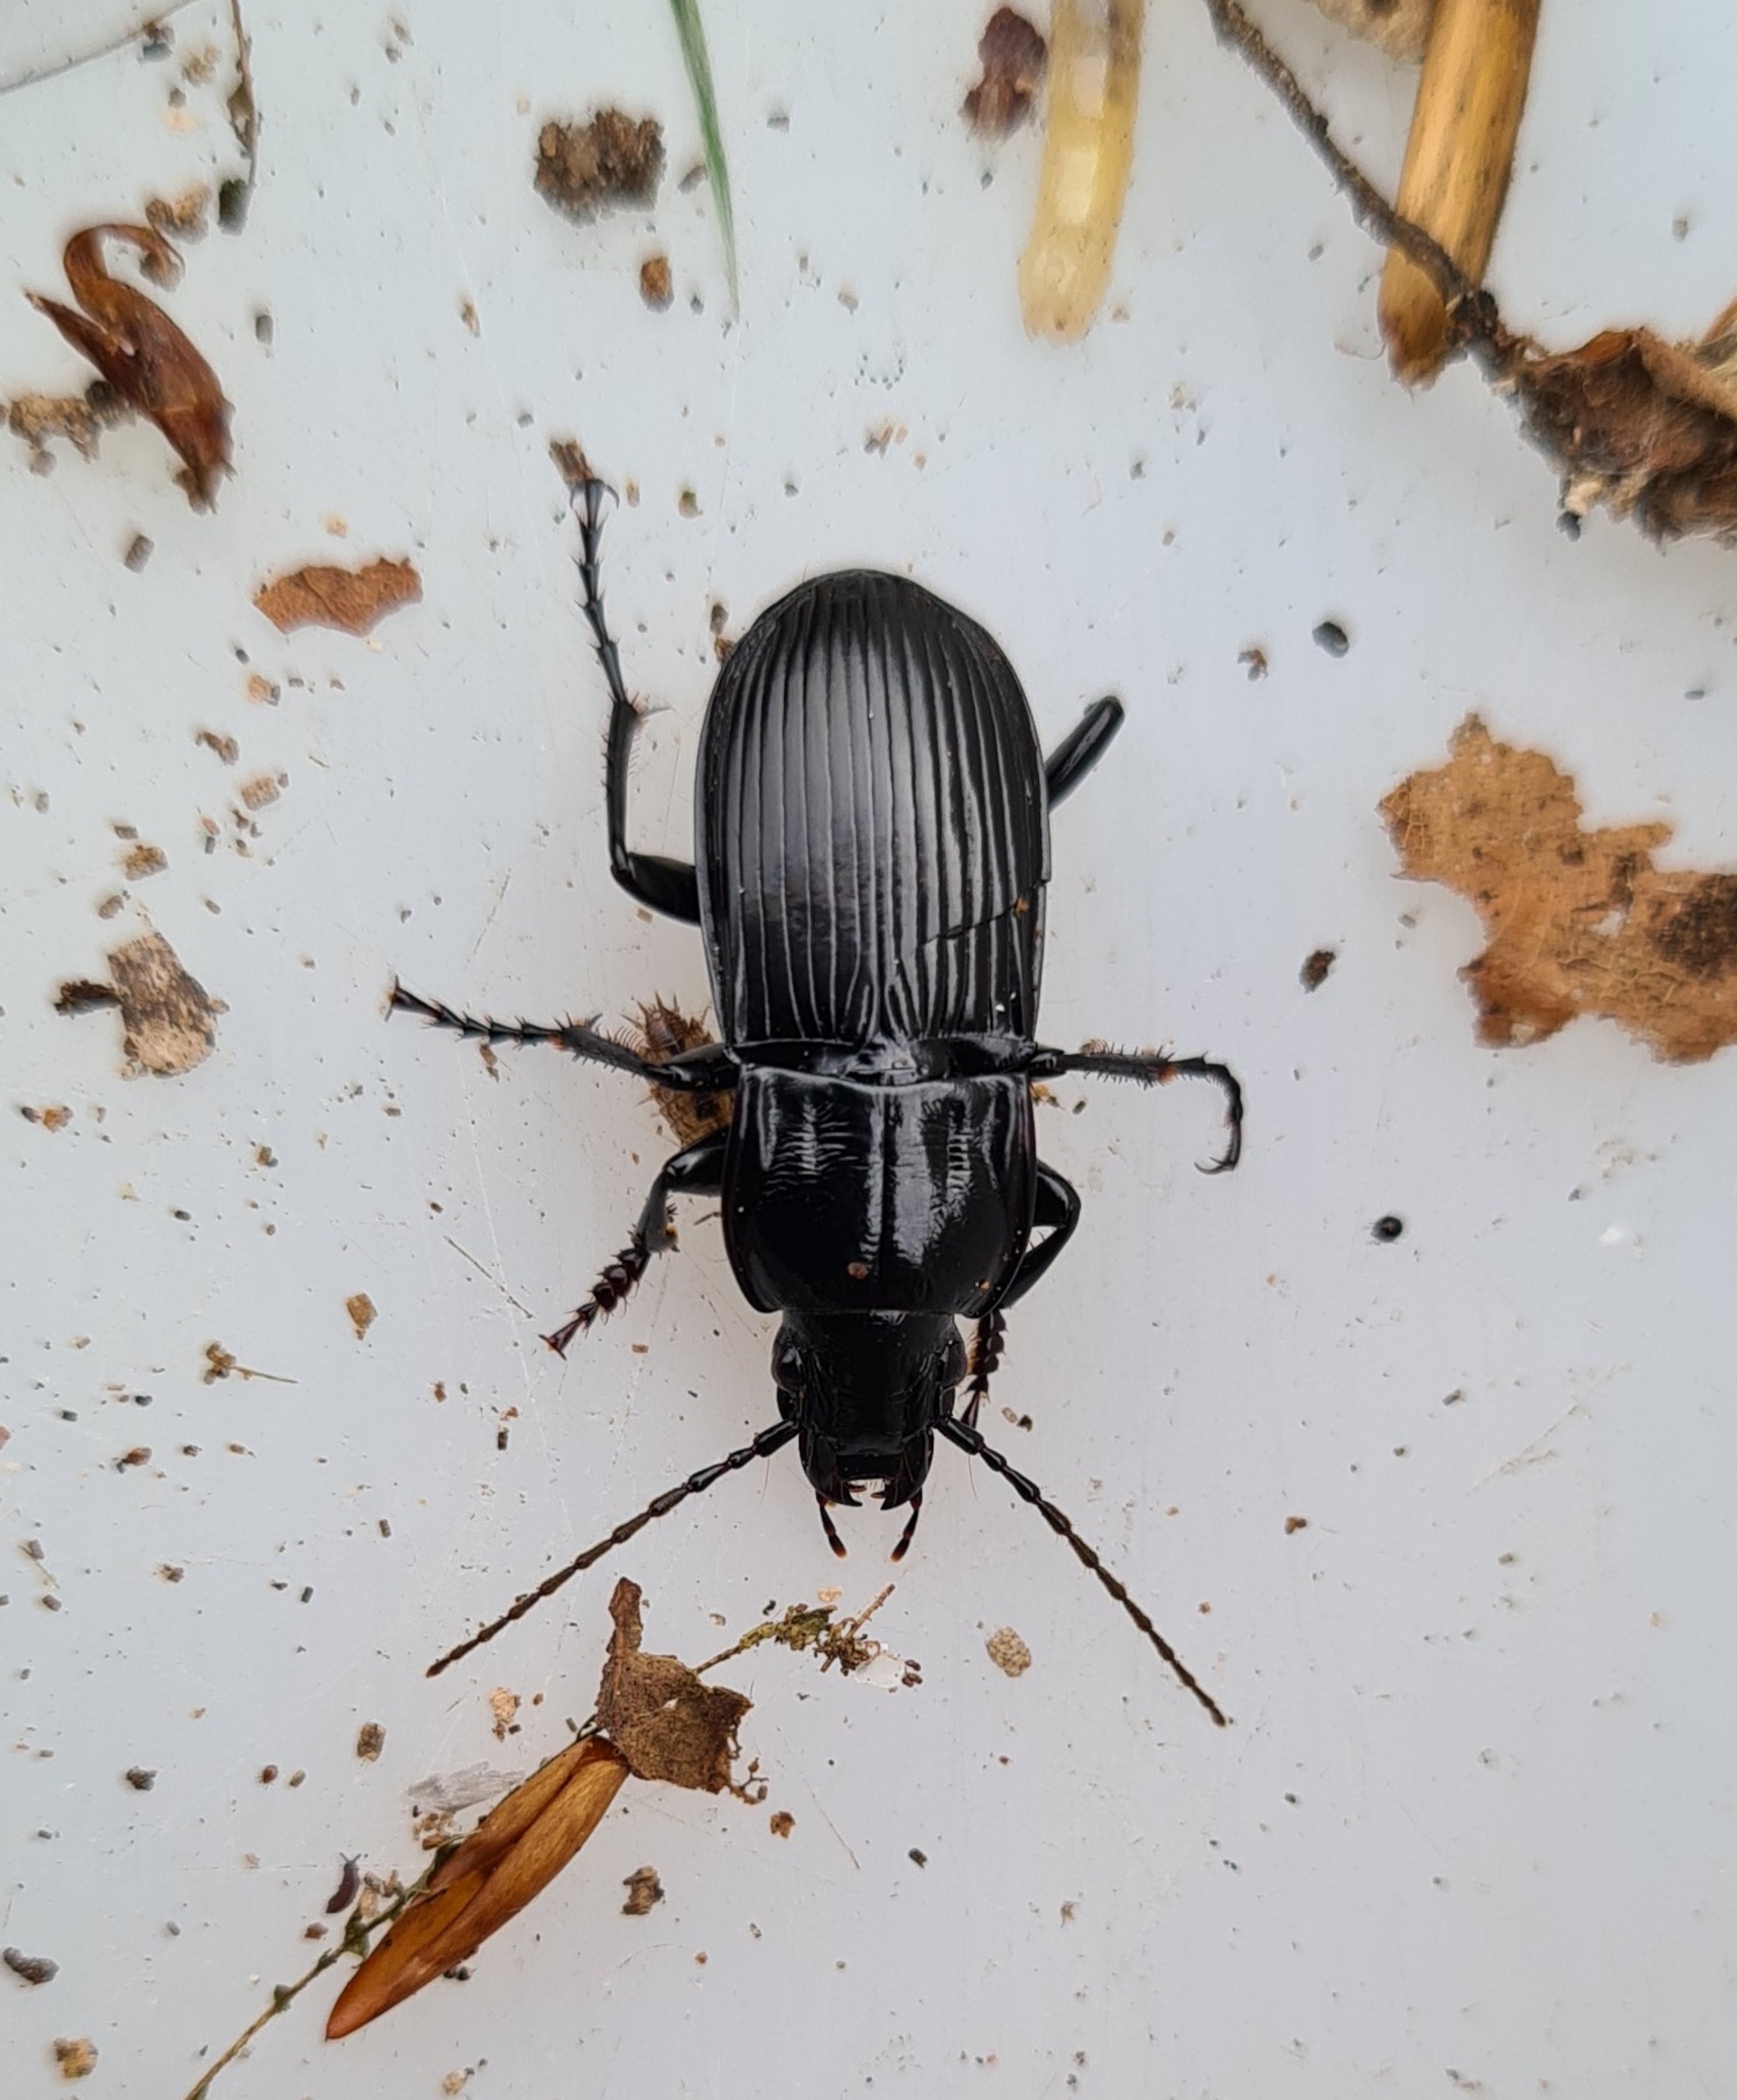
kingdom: Animalia
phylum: Arthropoda
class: Insecta
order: Coleoptera
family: Carabidae
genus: Abax
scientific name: Abax parallelepipedus
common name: Bred muldløber
